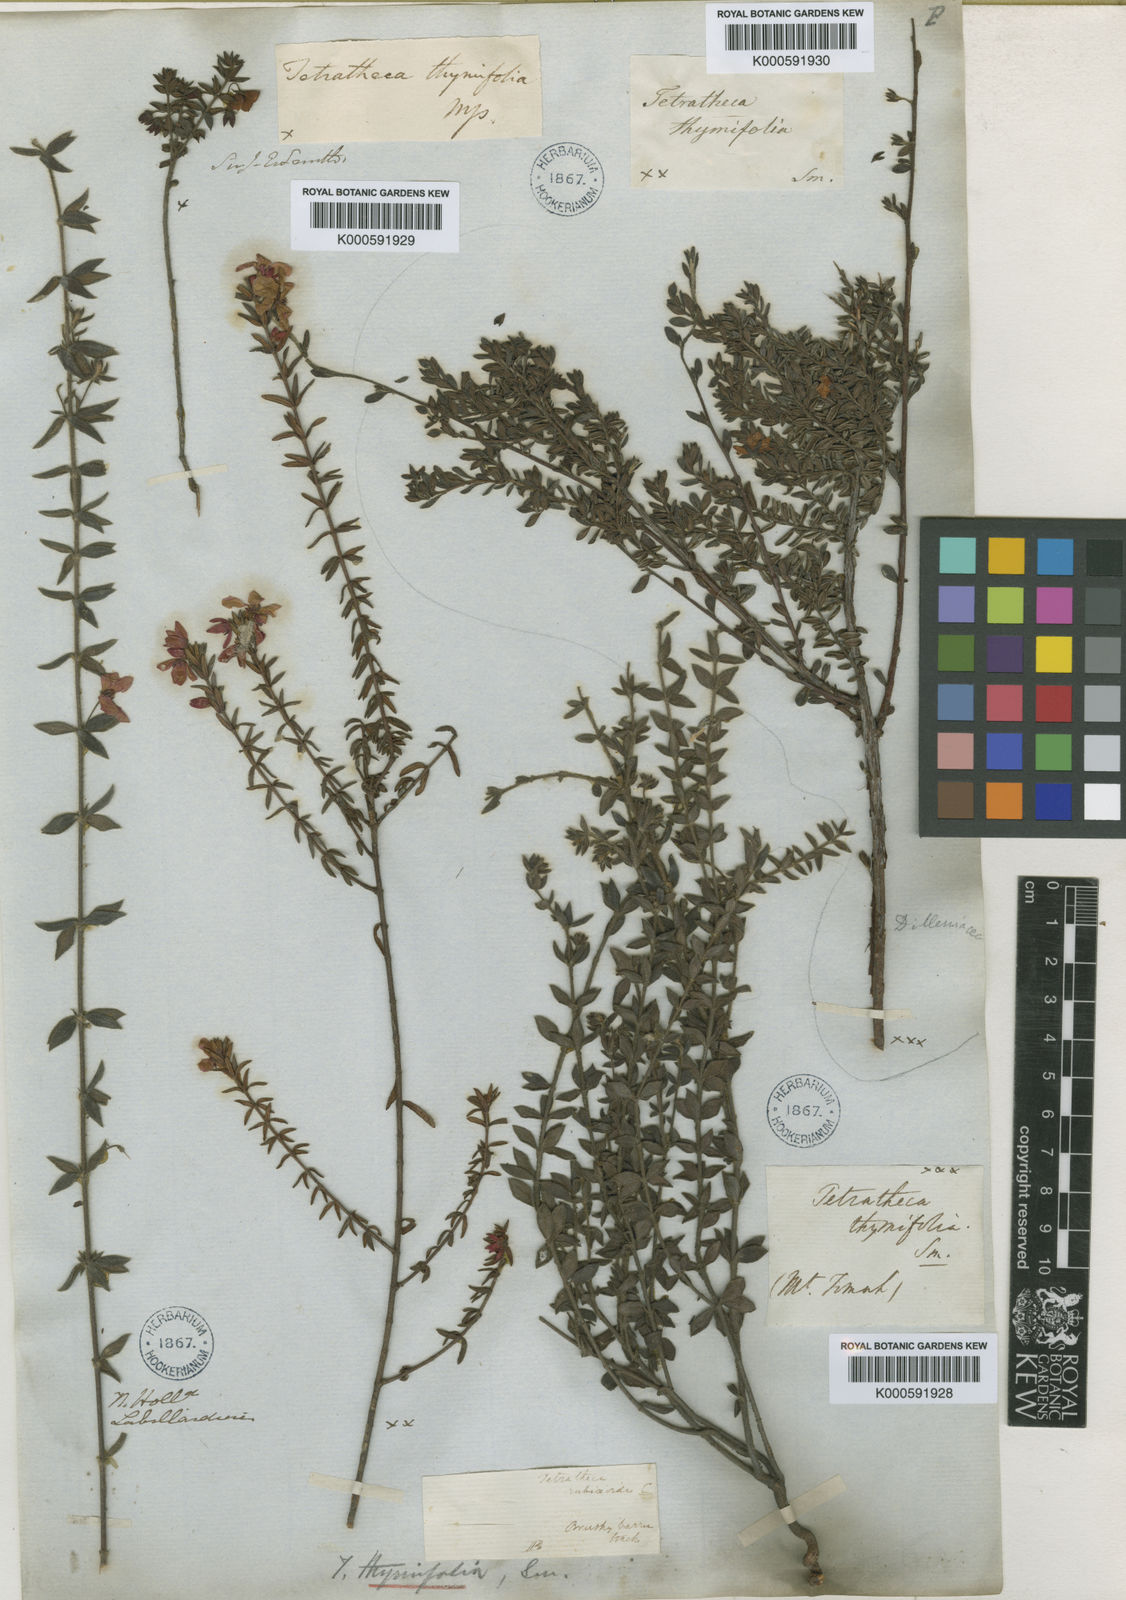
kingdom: Plantae
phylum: Tracheophyta
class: Magnoliopsida
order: Oxalidales
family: Elaeocarpaceae
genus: Tetratheca
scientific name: Tetratheca thymifolia
